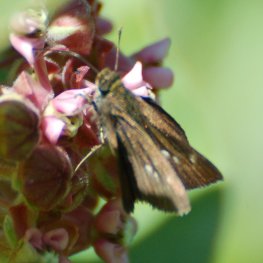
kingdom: Animalia
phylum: Arthropoda
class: Insecta
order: Lepidoptera
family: Hesperiidae
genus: Euphyes
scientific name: Euphyes vestris
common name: Dun Skipper
